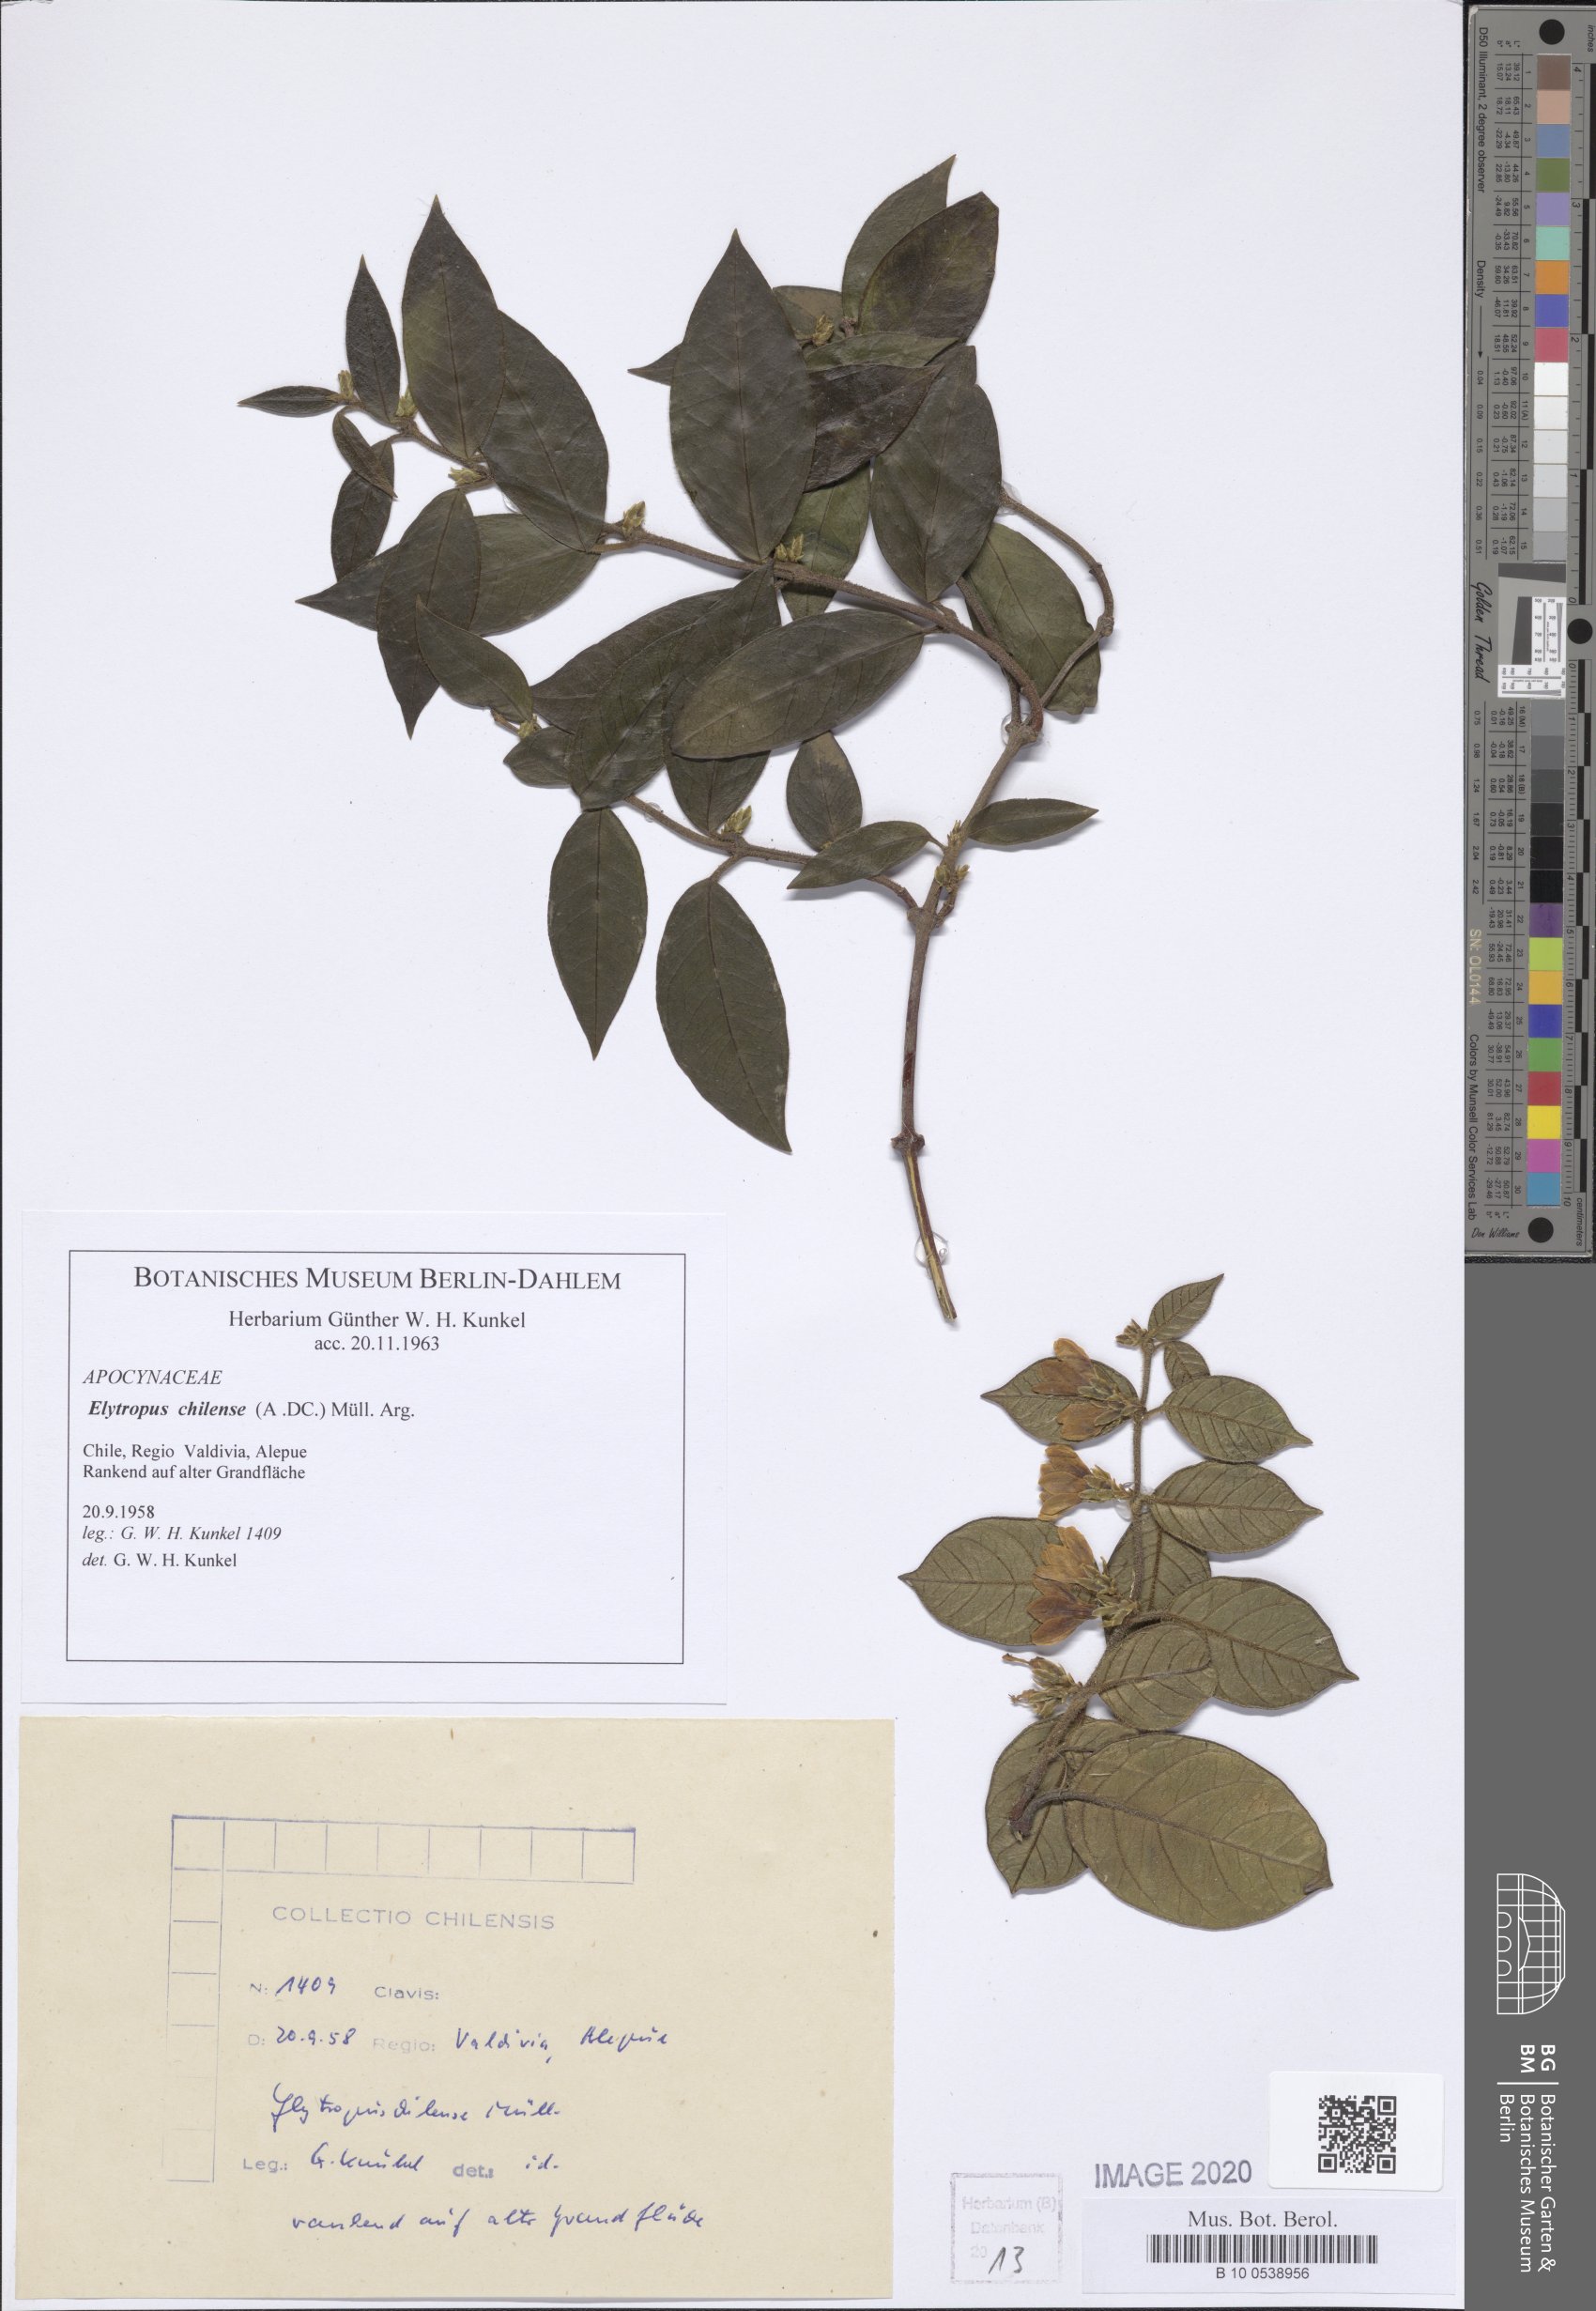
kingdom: Plantae
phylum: Tracheophyta
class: Magnoliopsida
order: Gentianales
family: Apocynaceae
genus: Mandevilla
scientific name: Mandevilla pubescens
